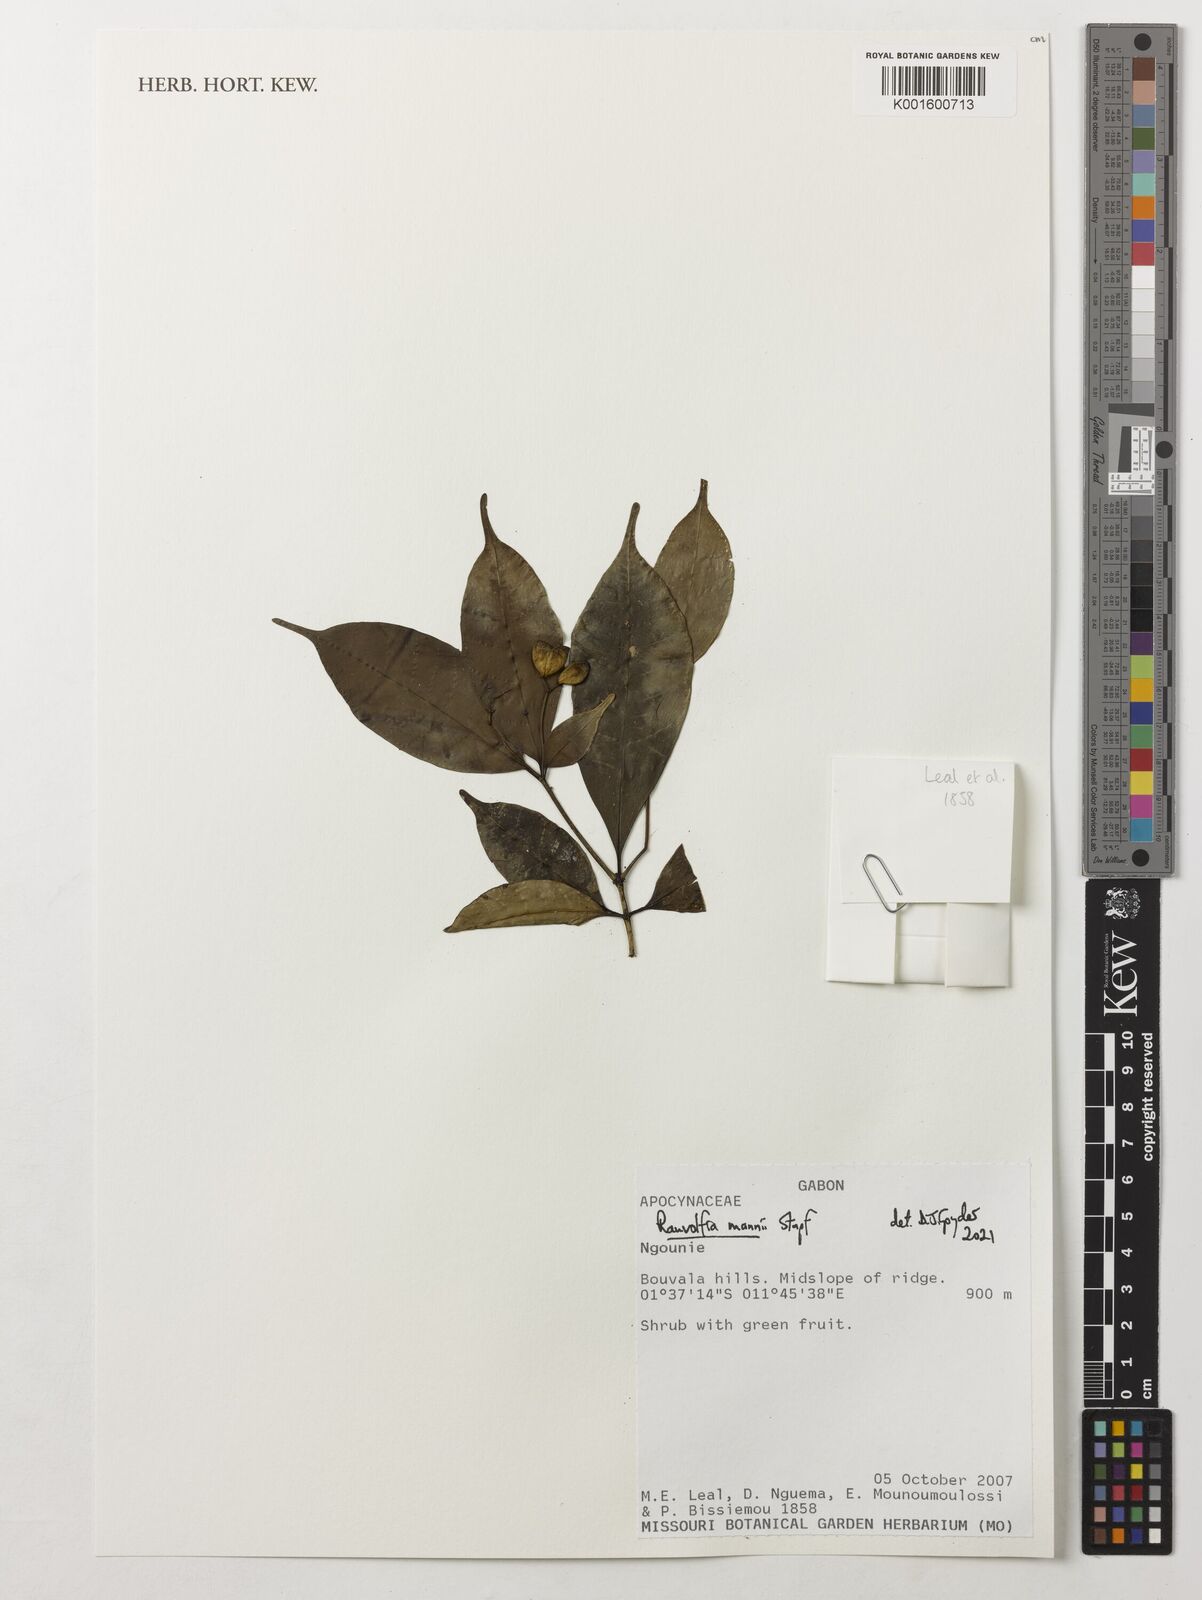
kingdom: Plantae
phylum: Tracheophyta
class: Magnoliopsida
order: Gentianales
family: Apocynaceae
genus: Rauvolfia
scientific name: Rauvolfia mannii
